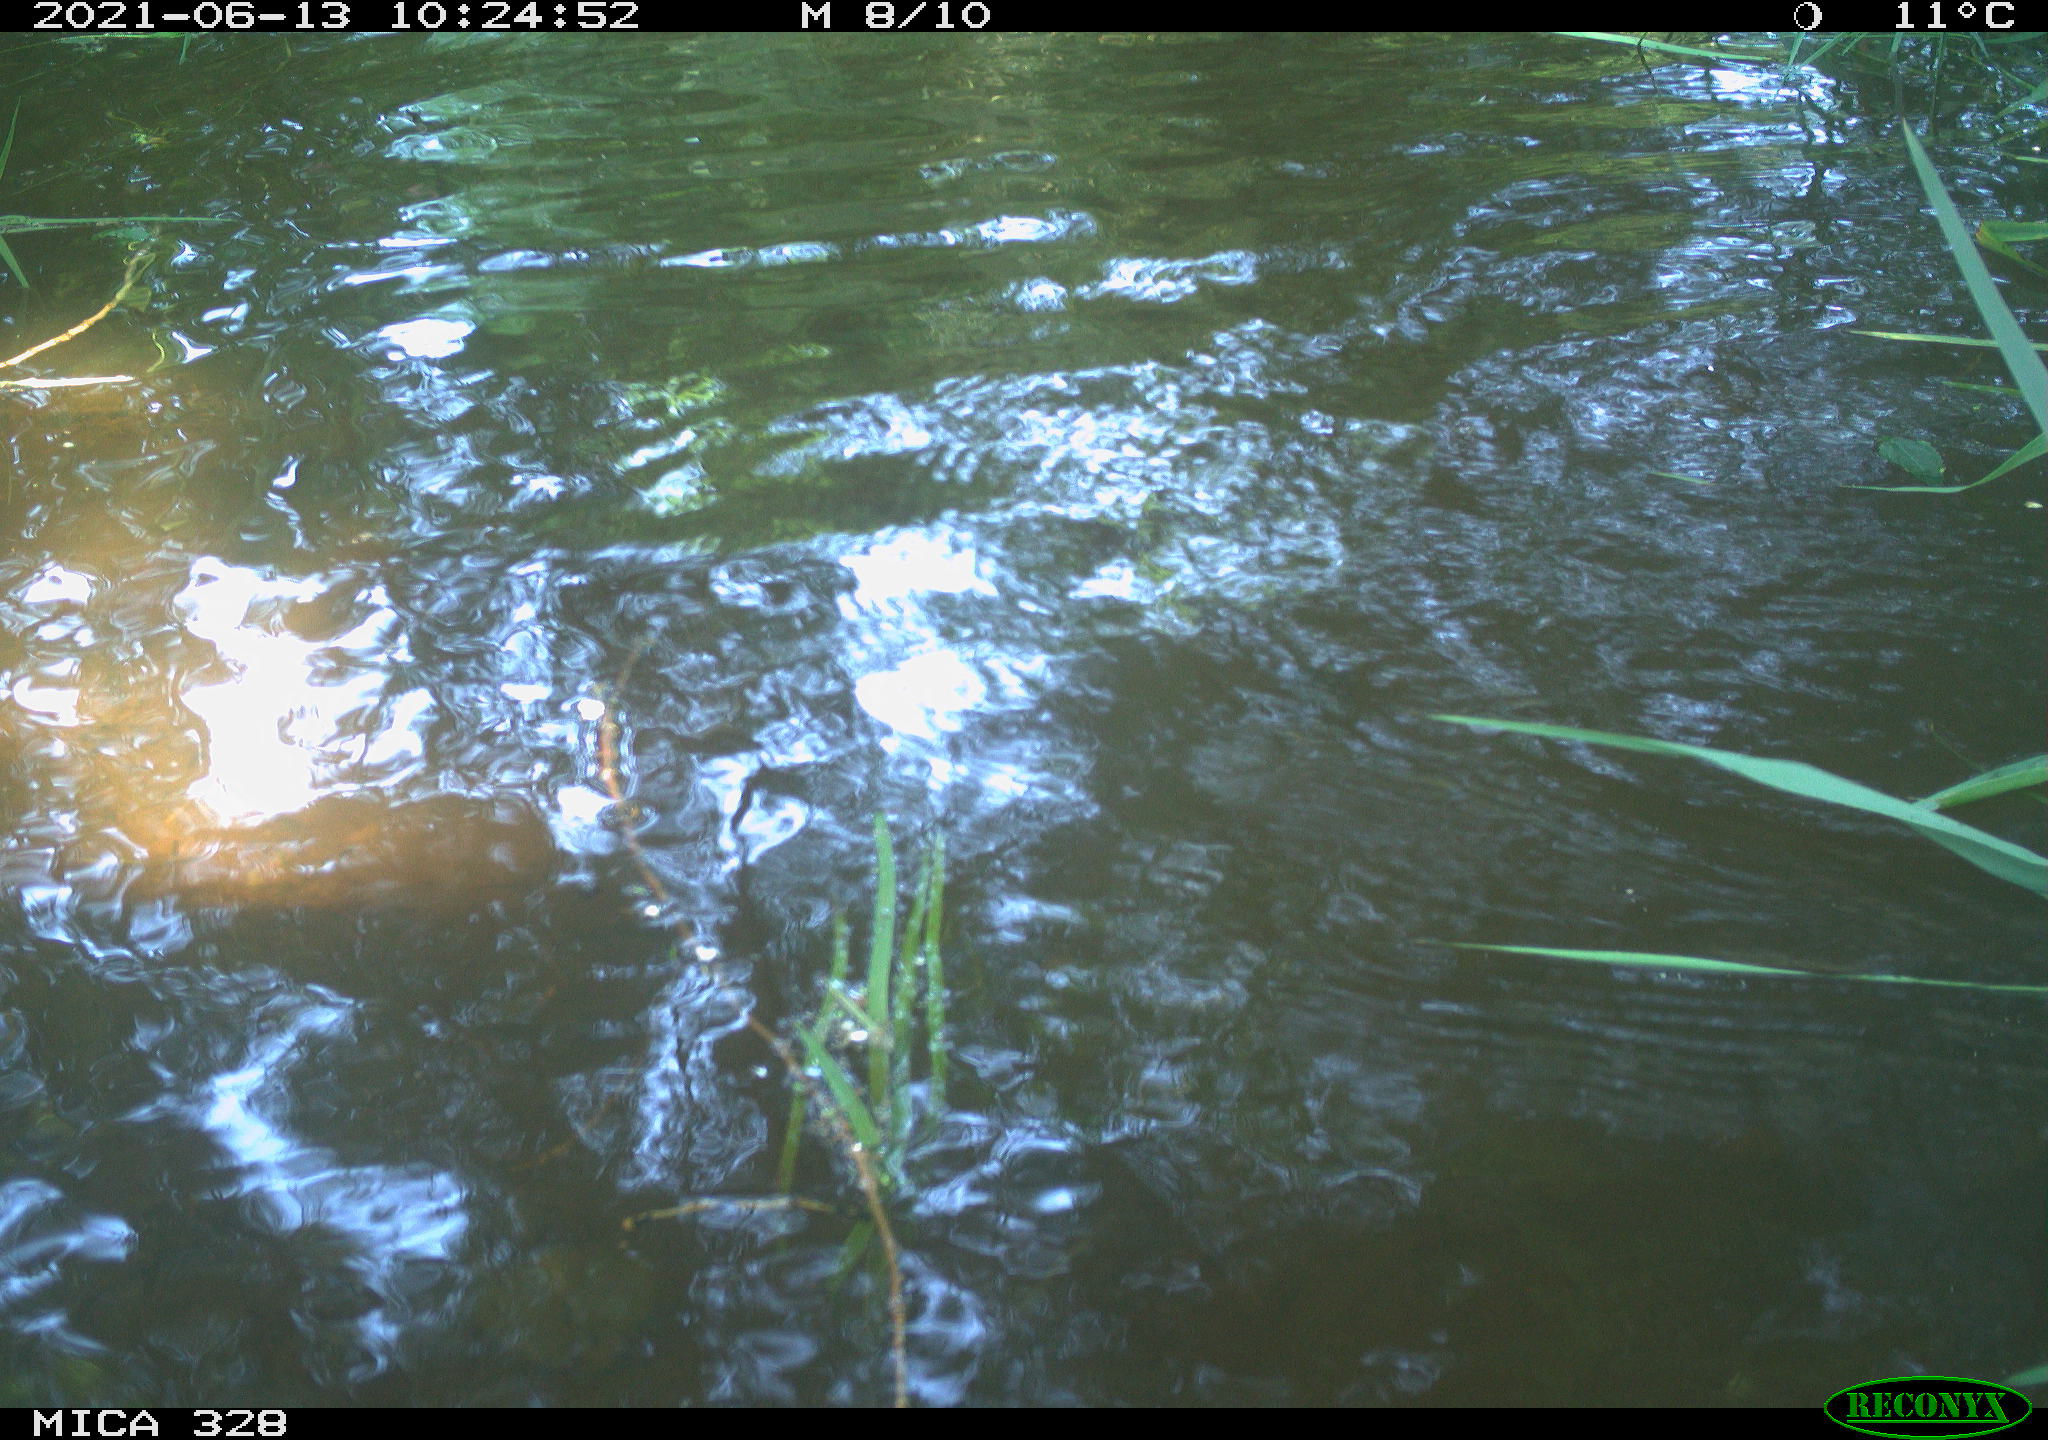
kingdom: Animalia
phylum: Chordata
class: Aves
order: Anseriformes
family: Anatidae
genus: Aix
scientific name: Aix galericulata
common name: Mandarin duck
